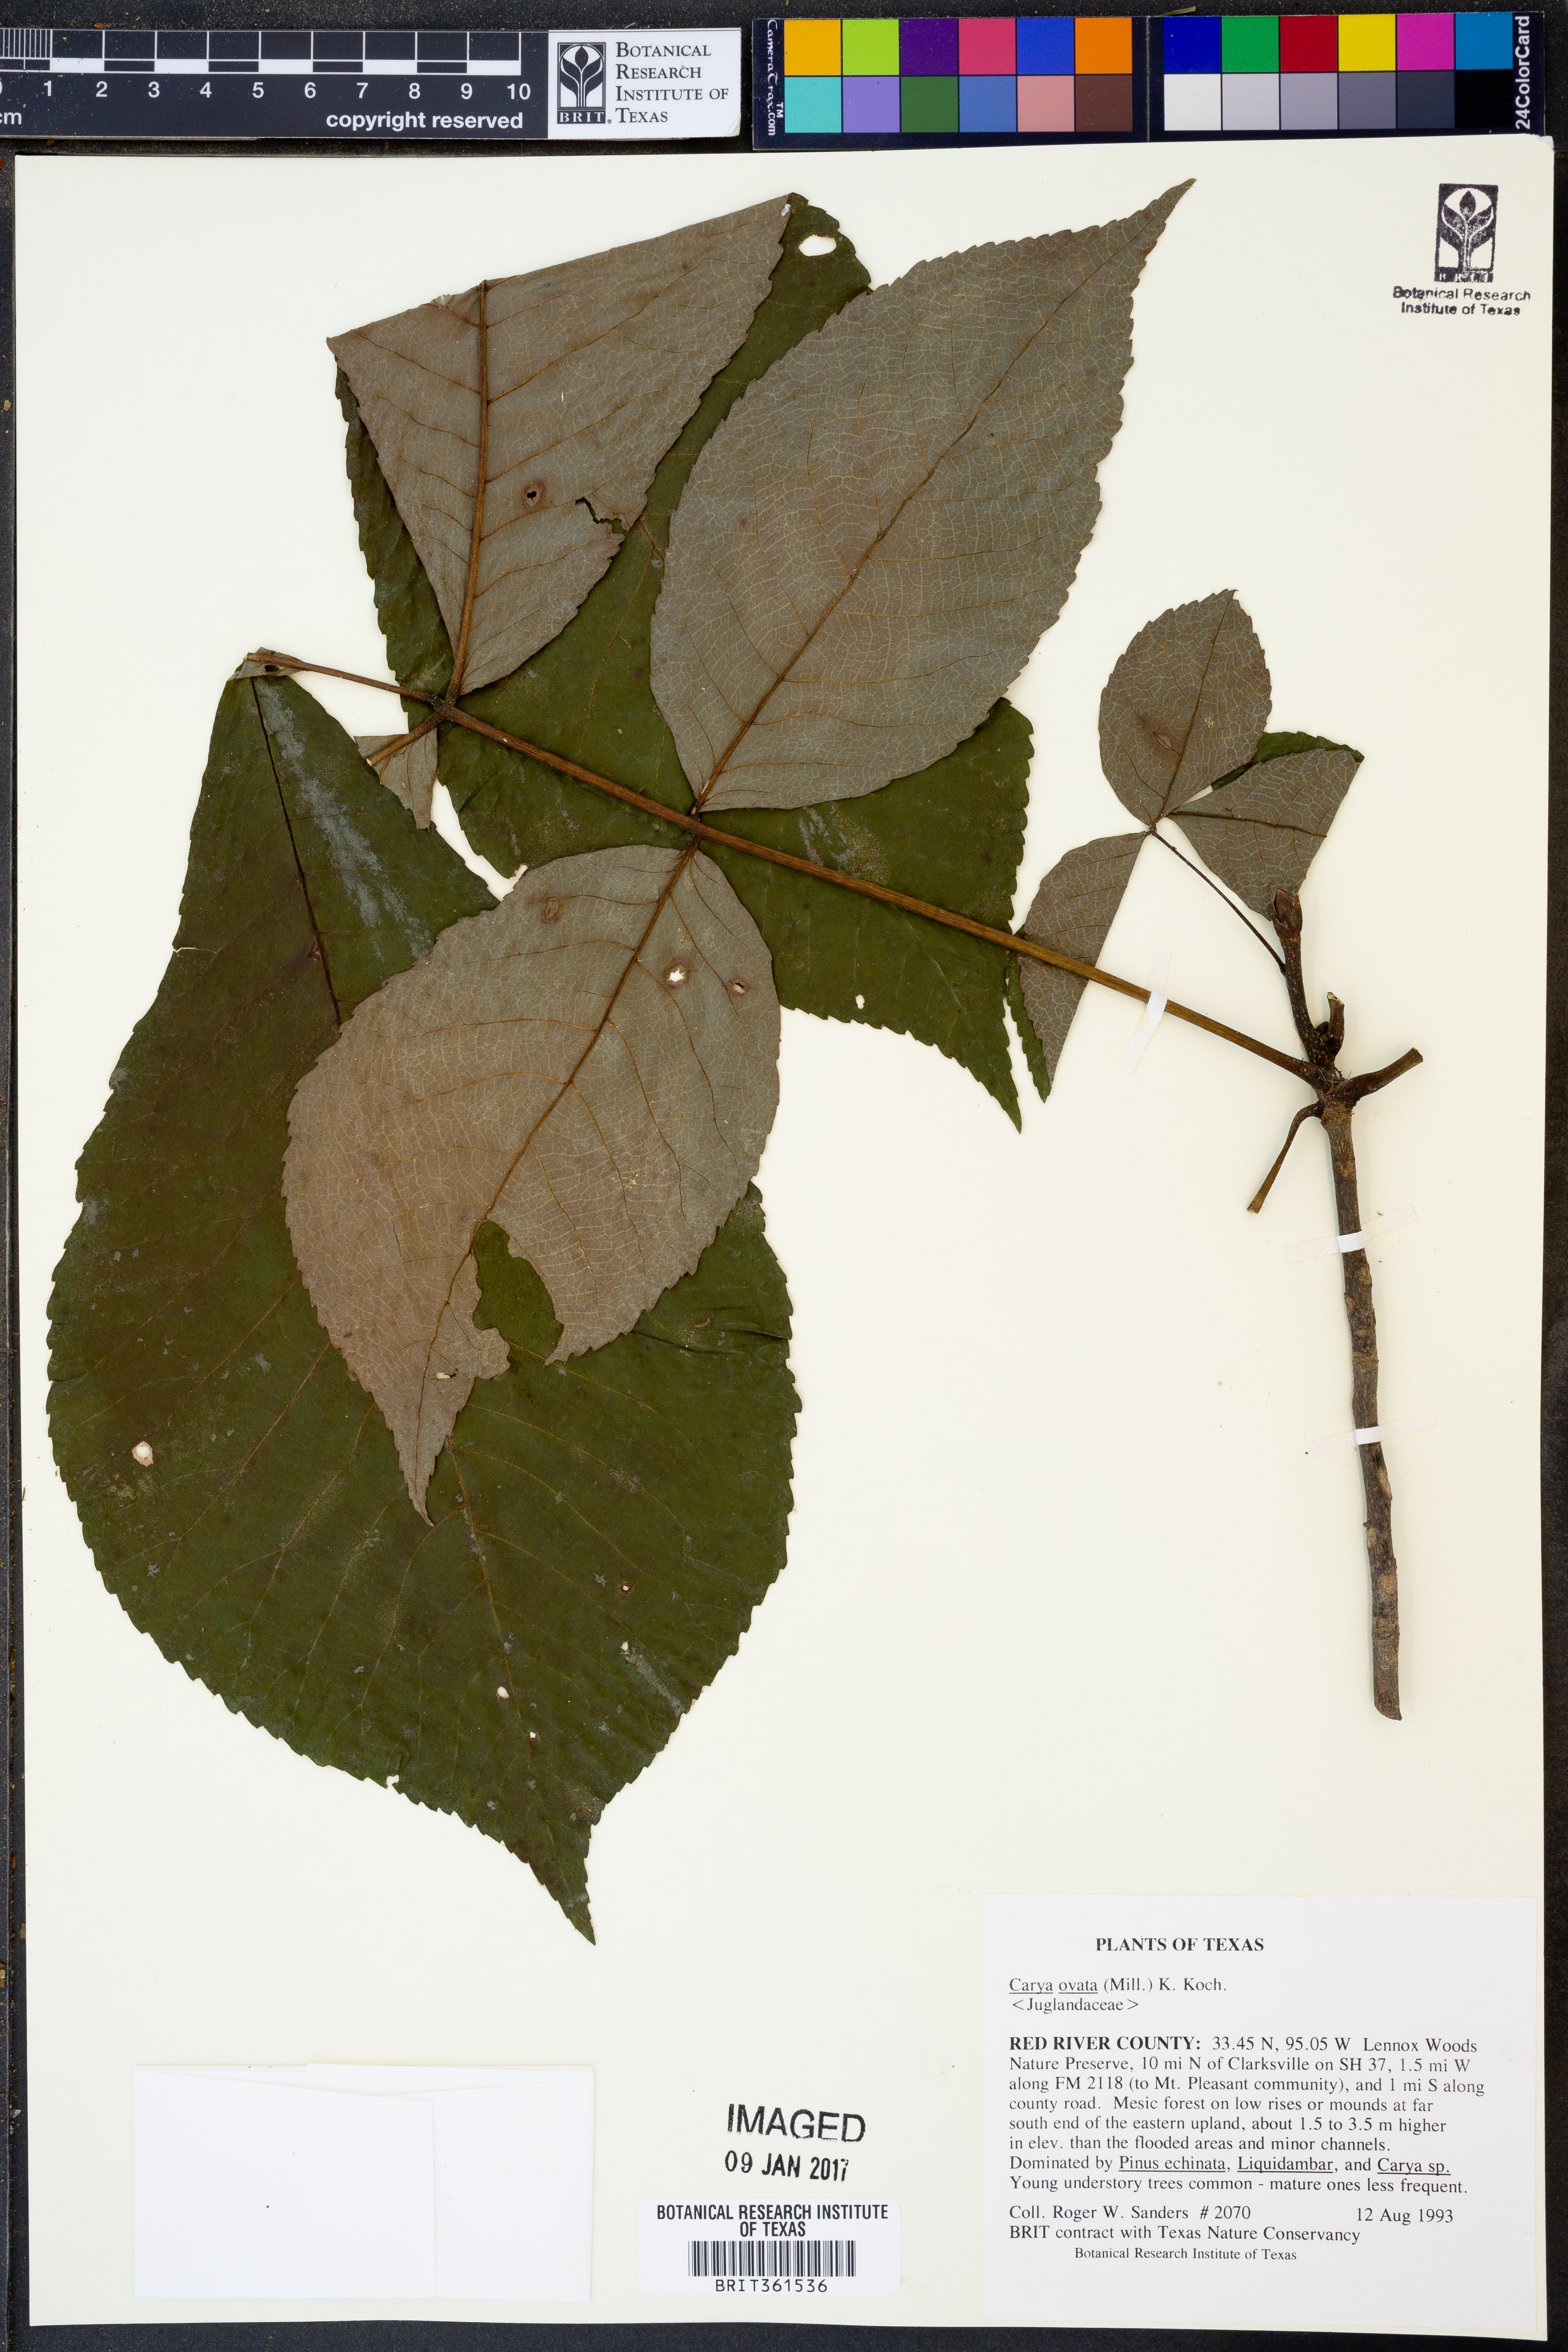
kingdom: Plantae
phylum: Tracheophyta
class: Magnoliopsida
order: Fagales
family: Juglandaceae
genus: Carya
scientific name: Carya ovata
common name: Shagbark hickory
